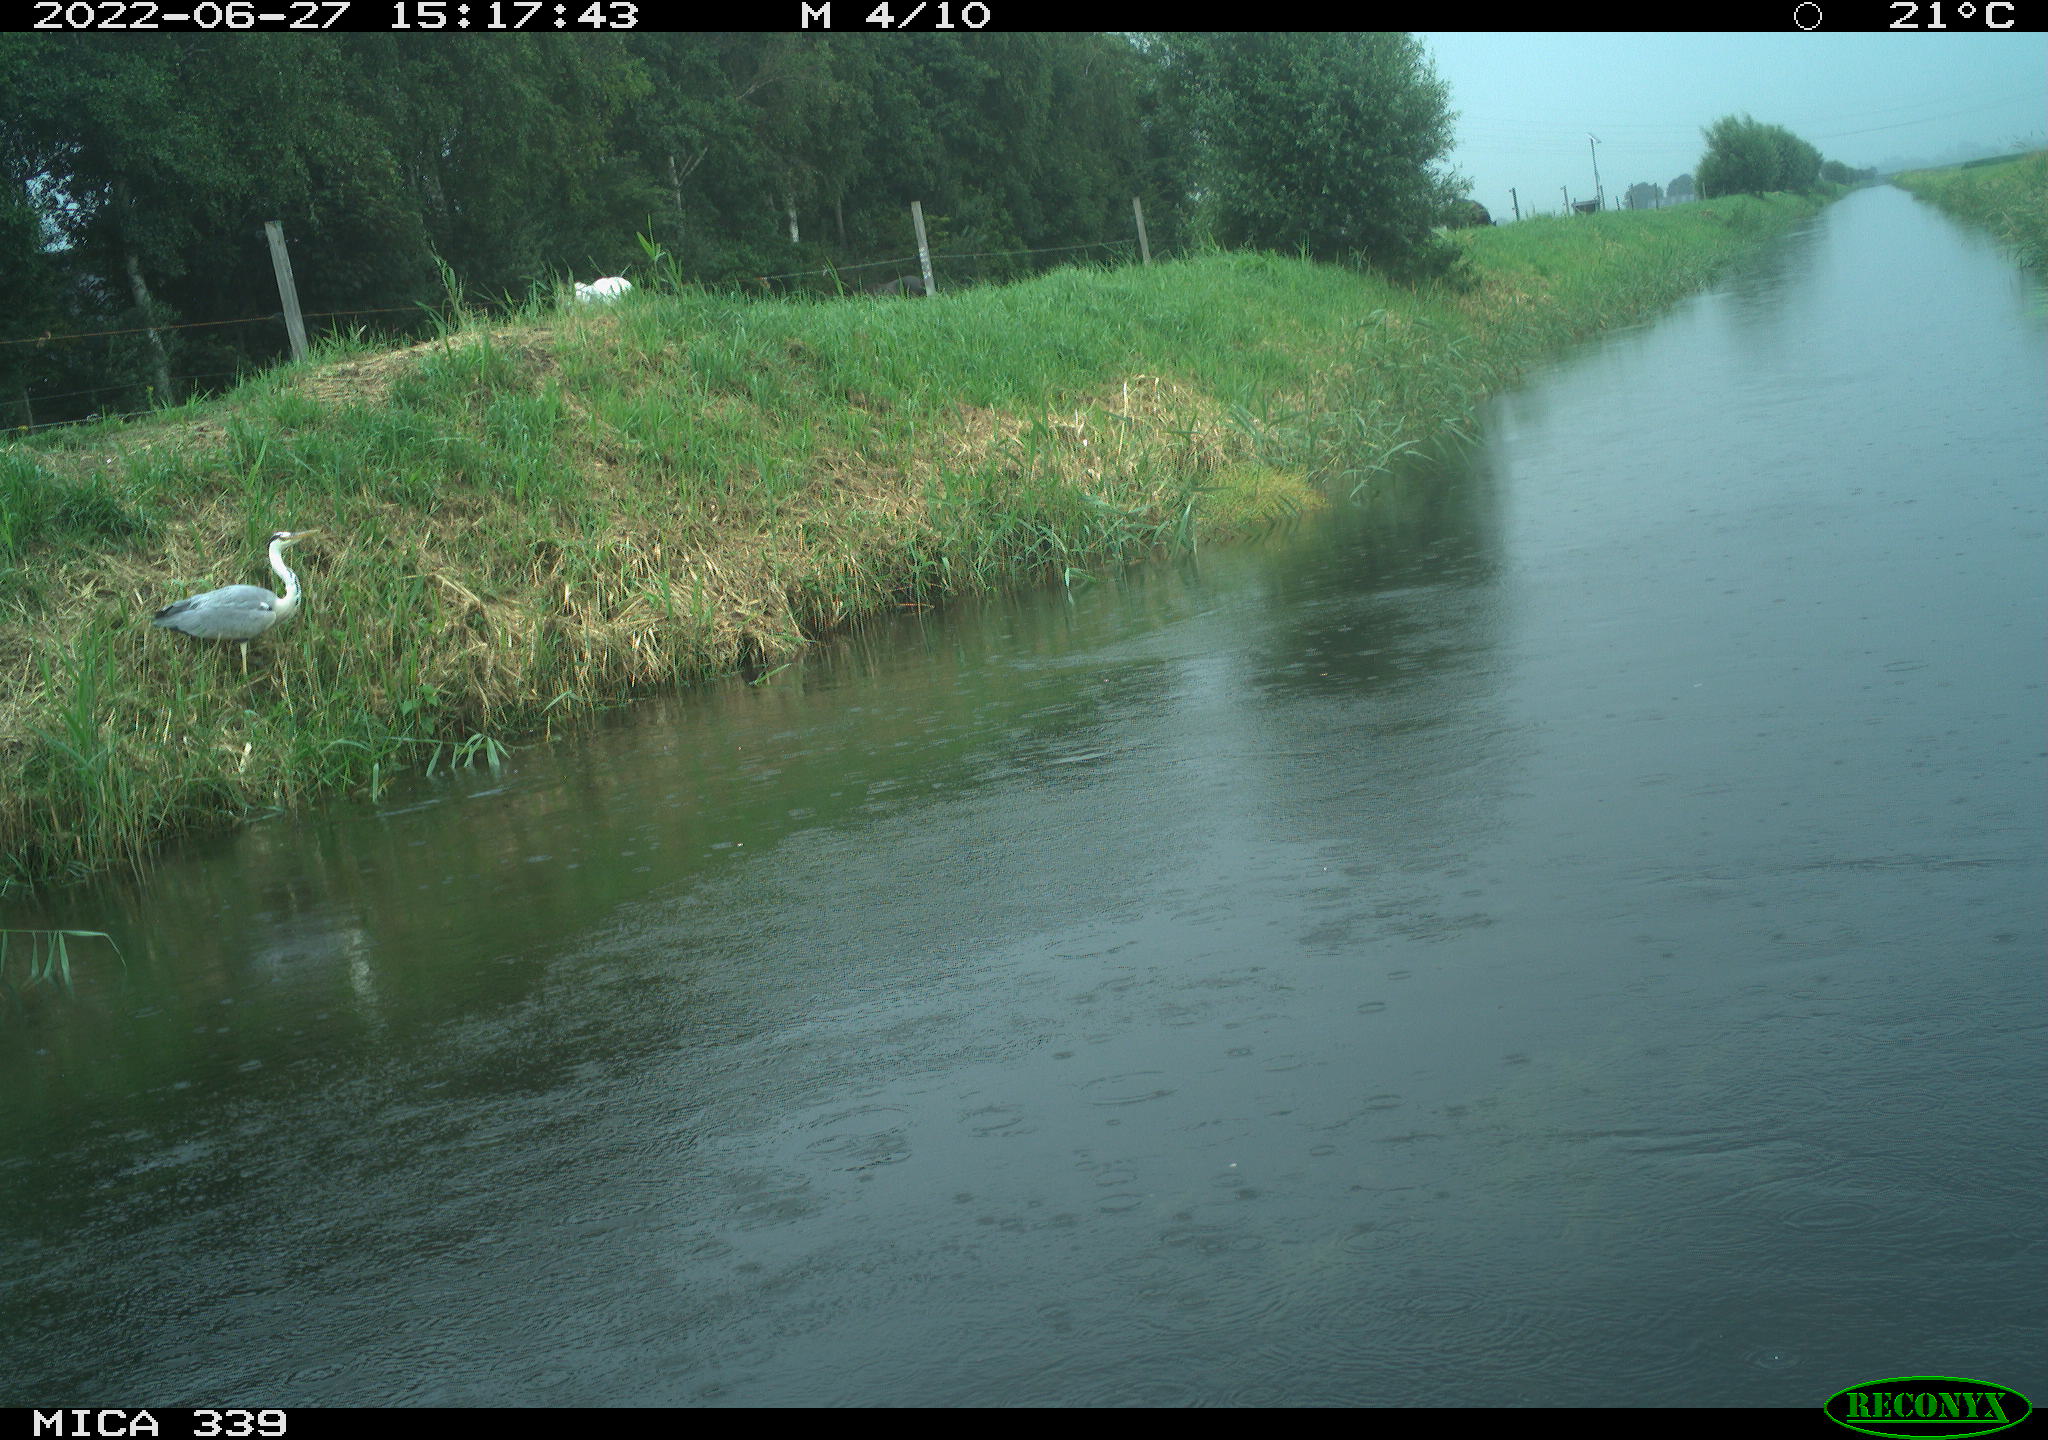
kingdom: Animalia
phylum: Chordata
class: Aves
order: Pelecaniformes
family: Ardeidae
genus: Ardea
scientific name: Ardea cinerea
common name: Grey heron
